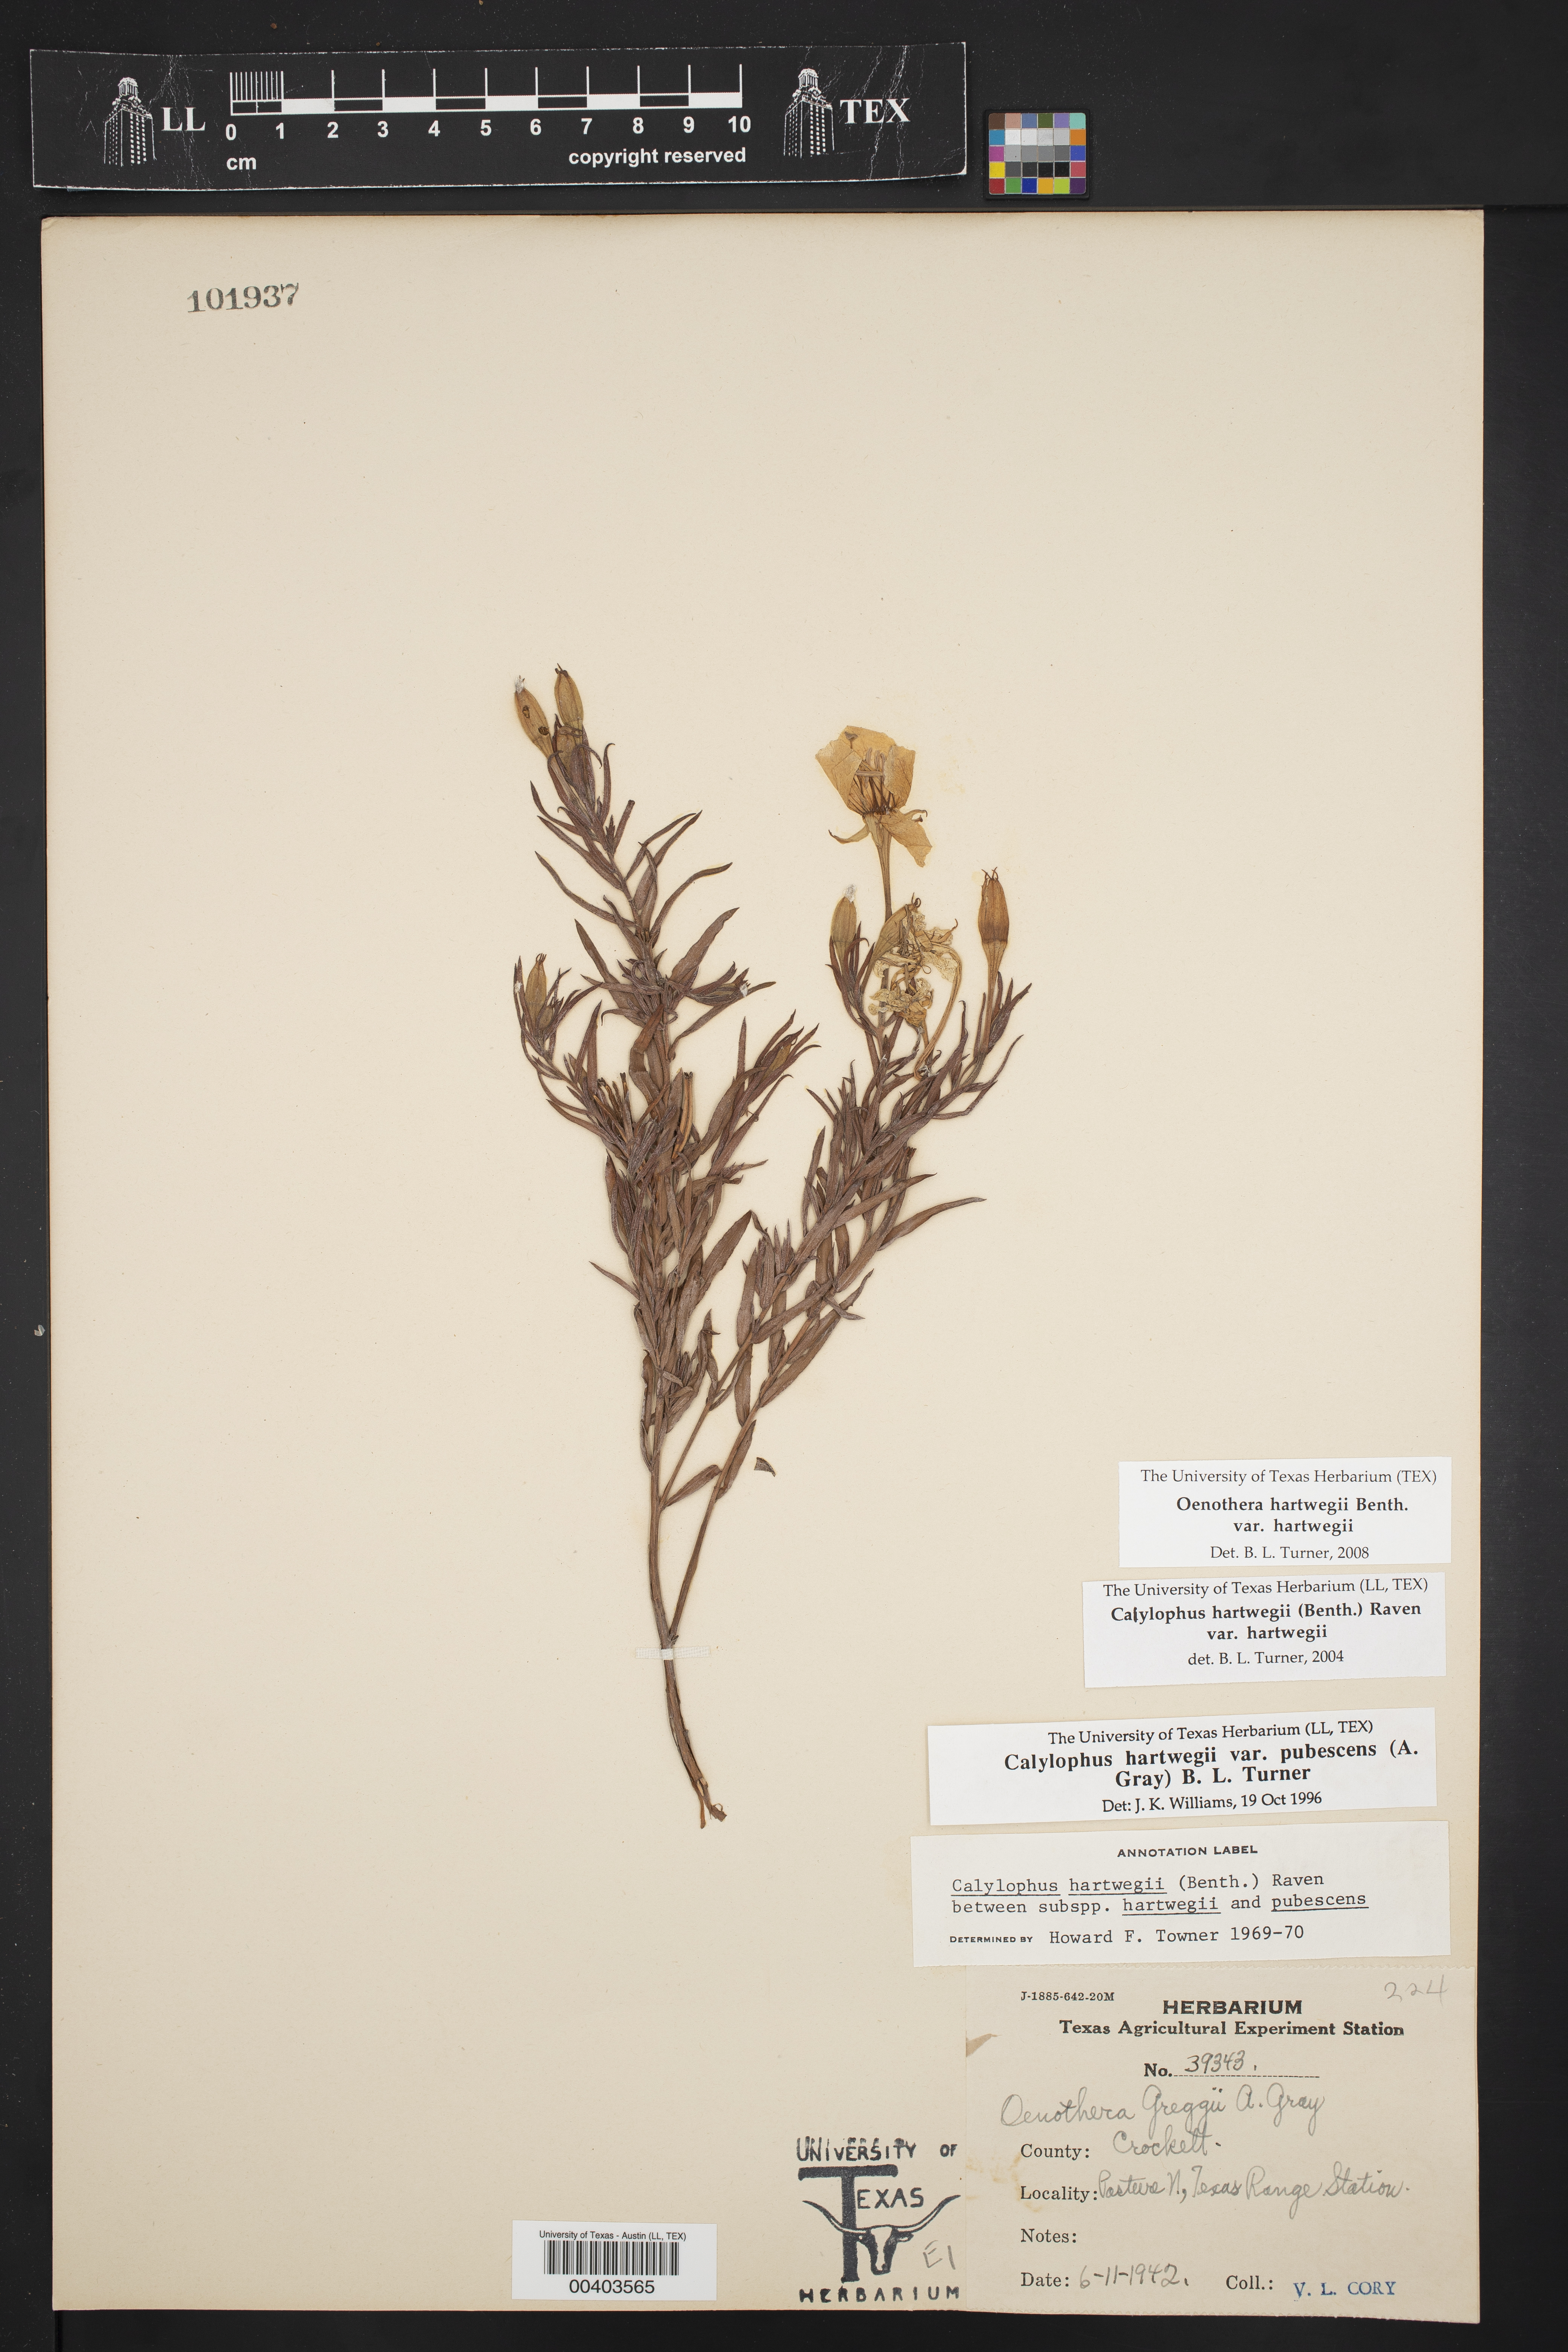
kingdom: Plantae
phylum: Tracheophyta
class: Magnoliopsida
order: Myrtales
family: Onagraceae
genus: Oenothera
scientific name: Oenothera hartwegii
